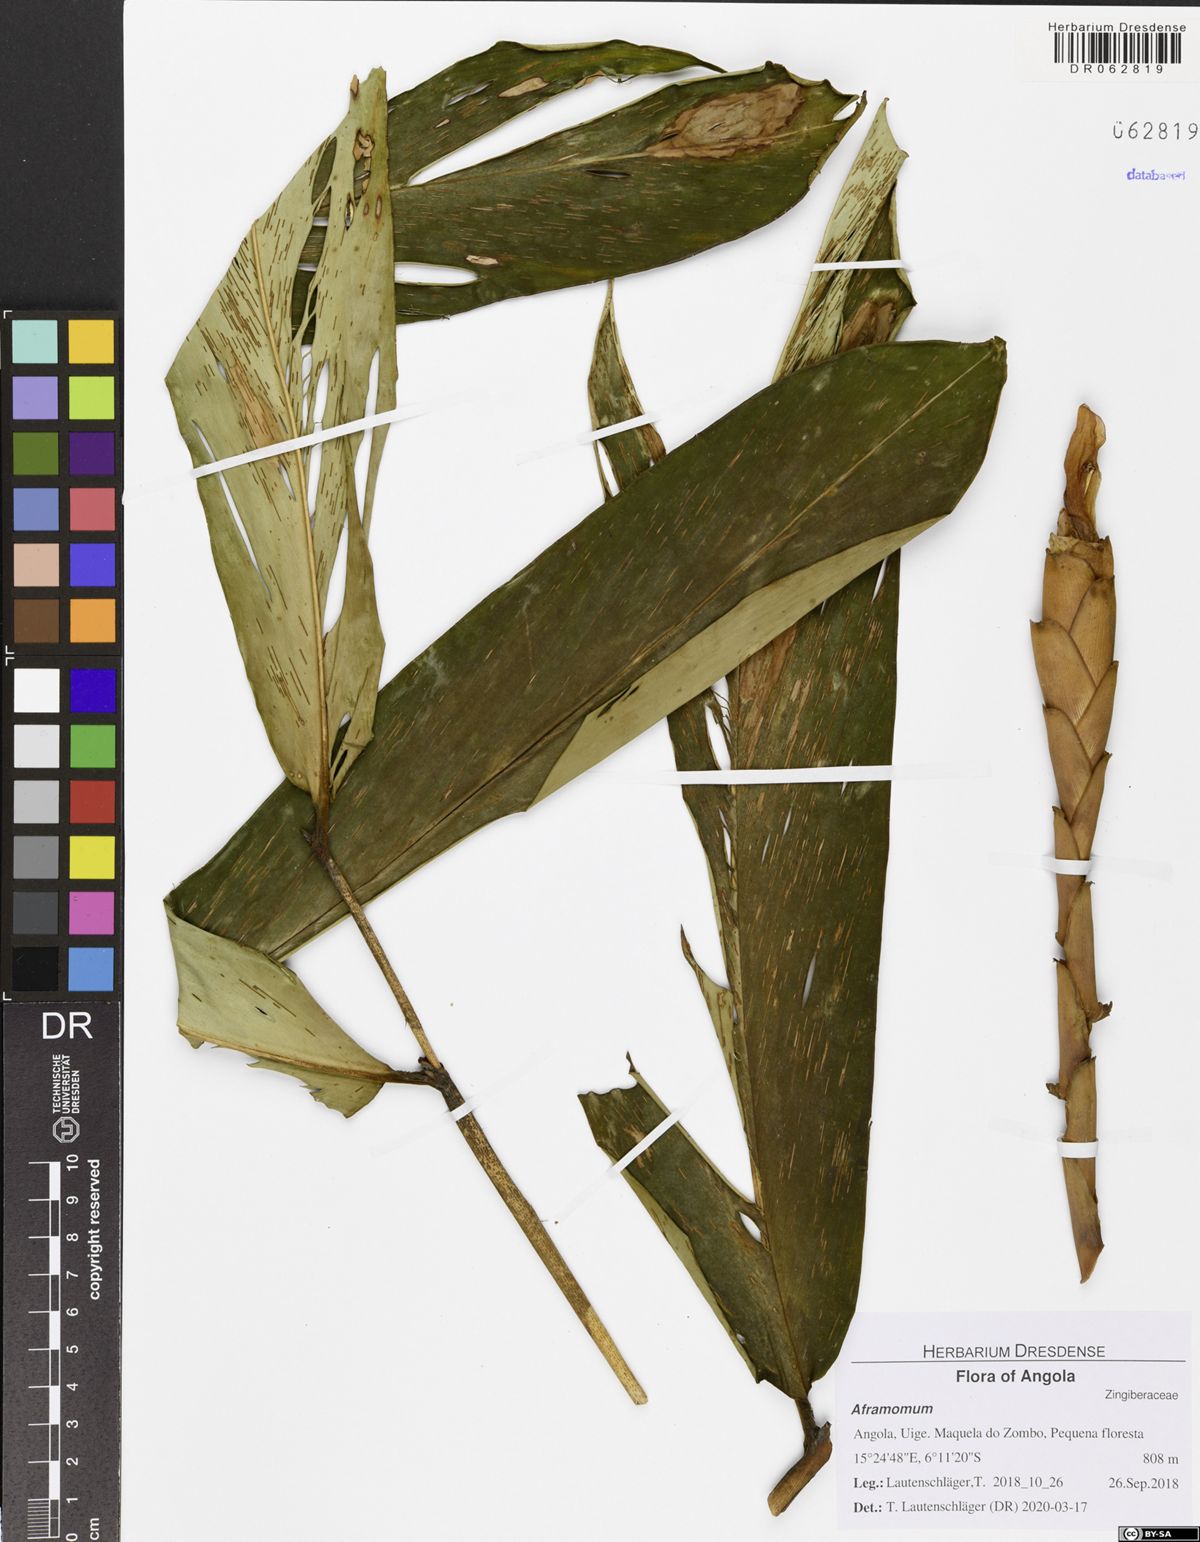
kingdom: Plantae
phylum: Tracheophyta
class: Liliopsida
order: Zingiberales
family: Zingiberaceae
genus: Aframomum
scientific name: Aframomum angustifolium
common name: Guinea grains
